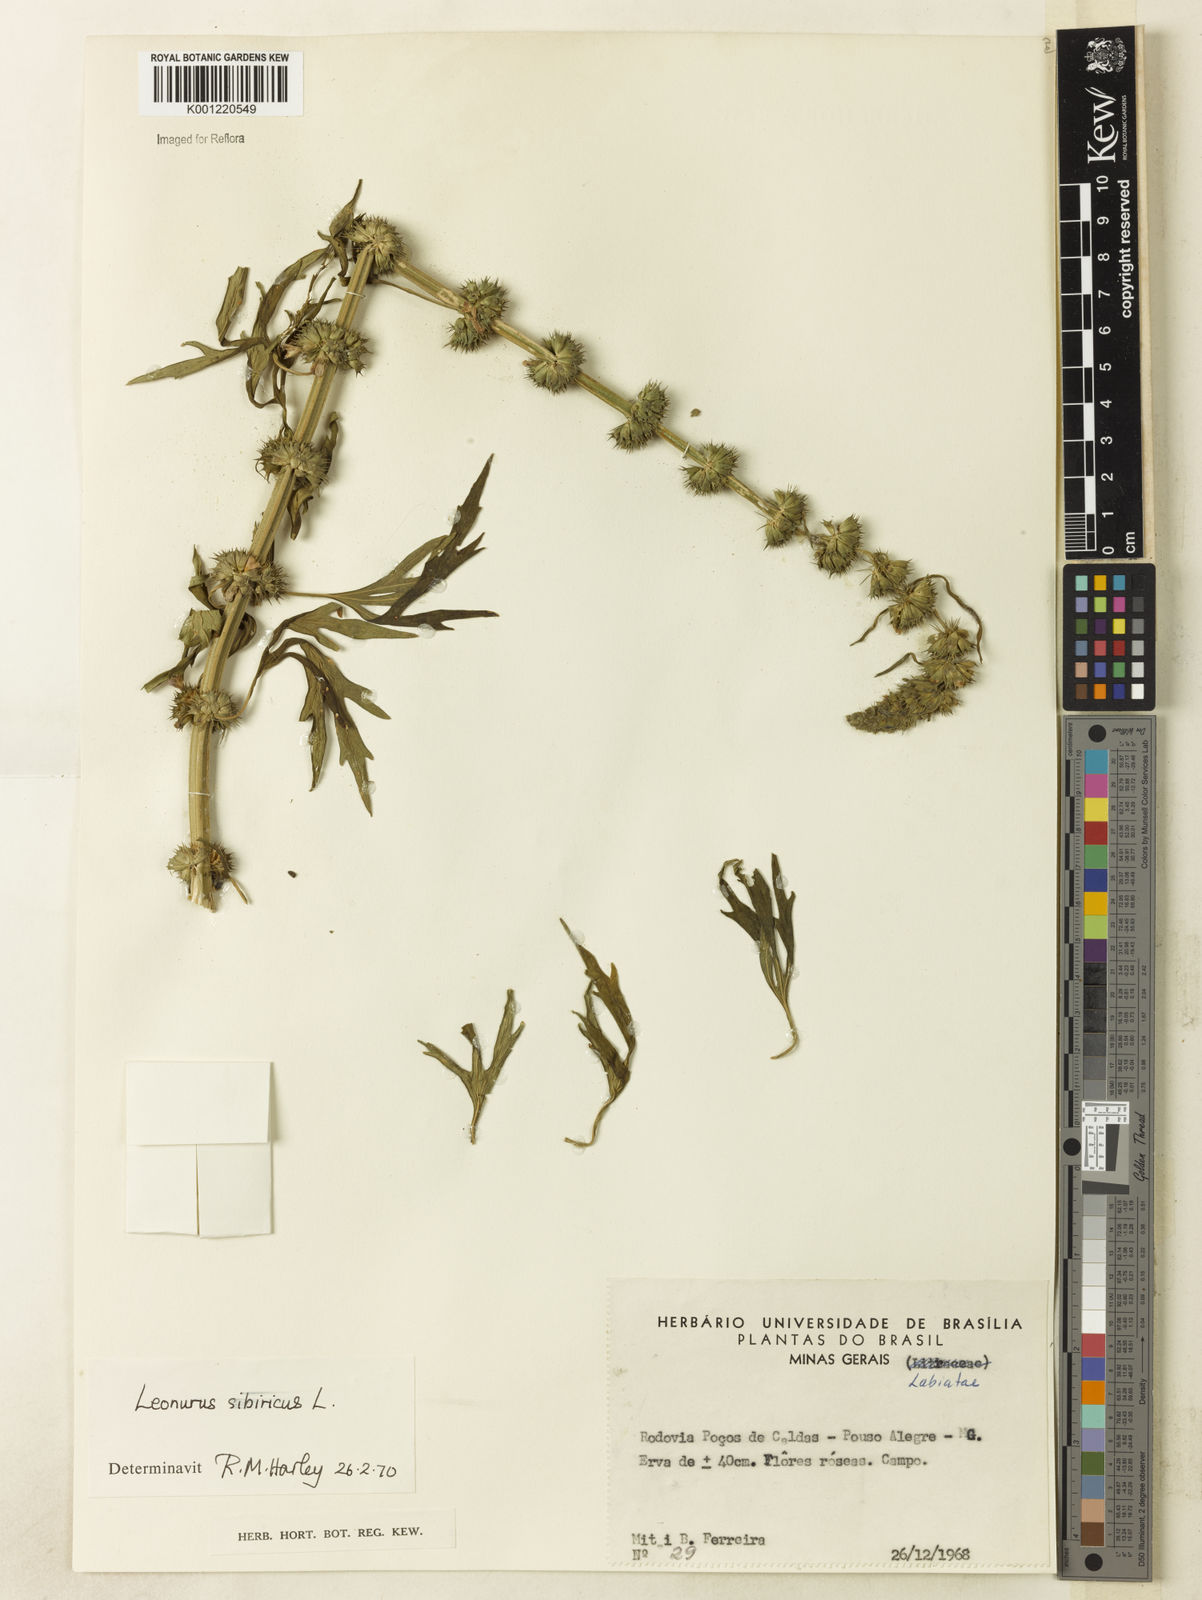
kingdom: Plantae
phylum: Tracheophyta
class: Magnoliopsida
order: Lamiales
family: Lamiaceae
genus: Leonurus
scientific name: Leonurus japonicus
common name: Honeyweed
